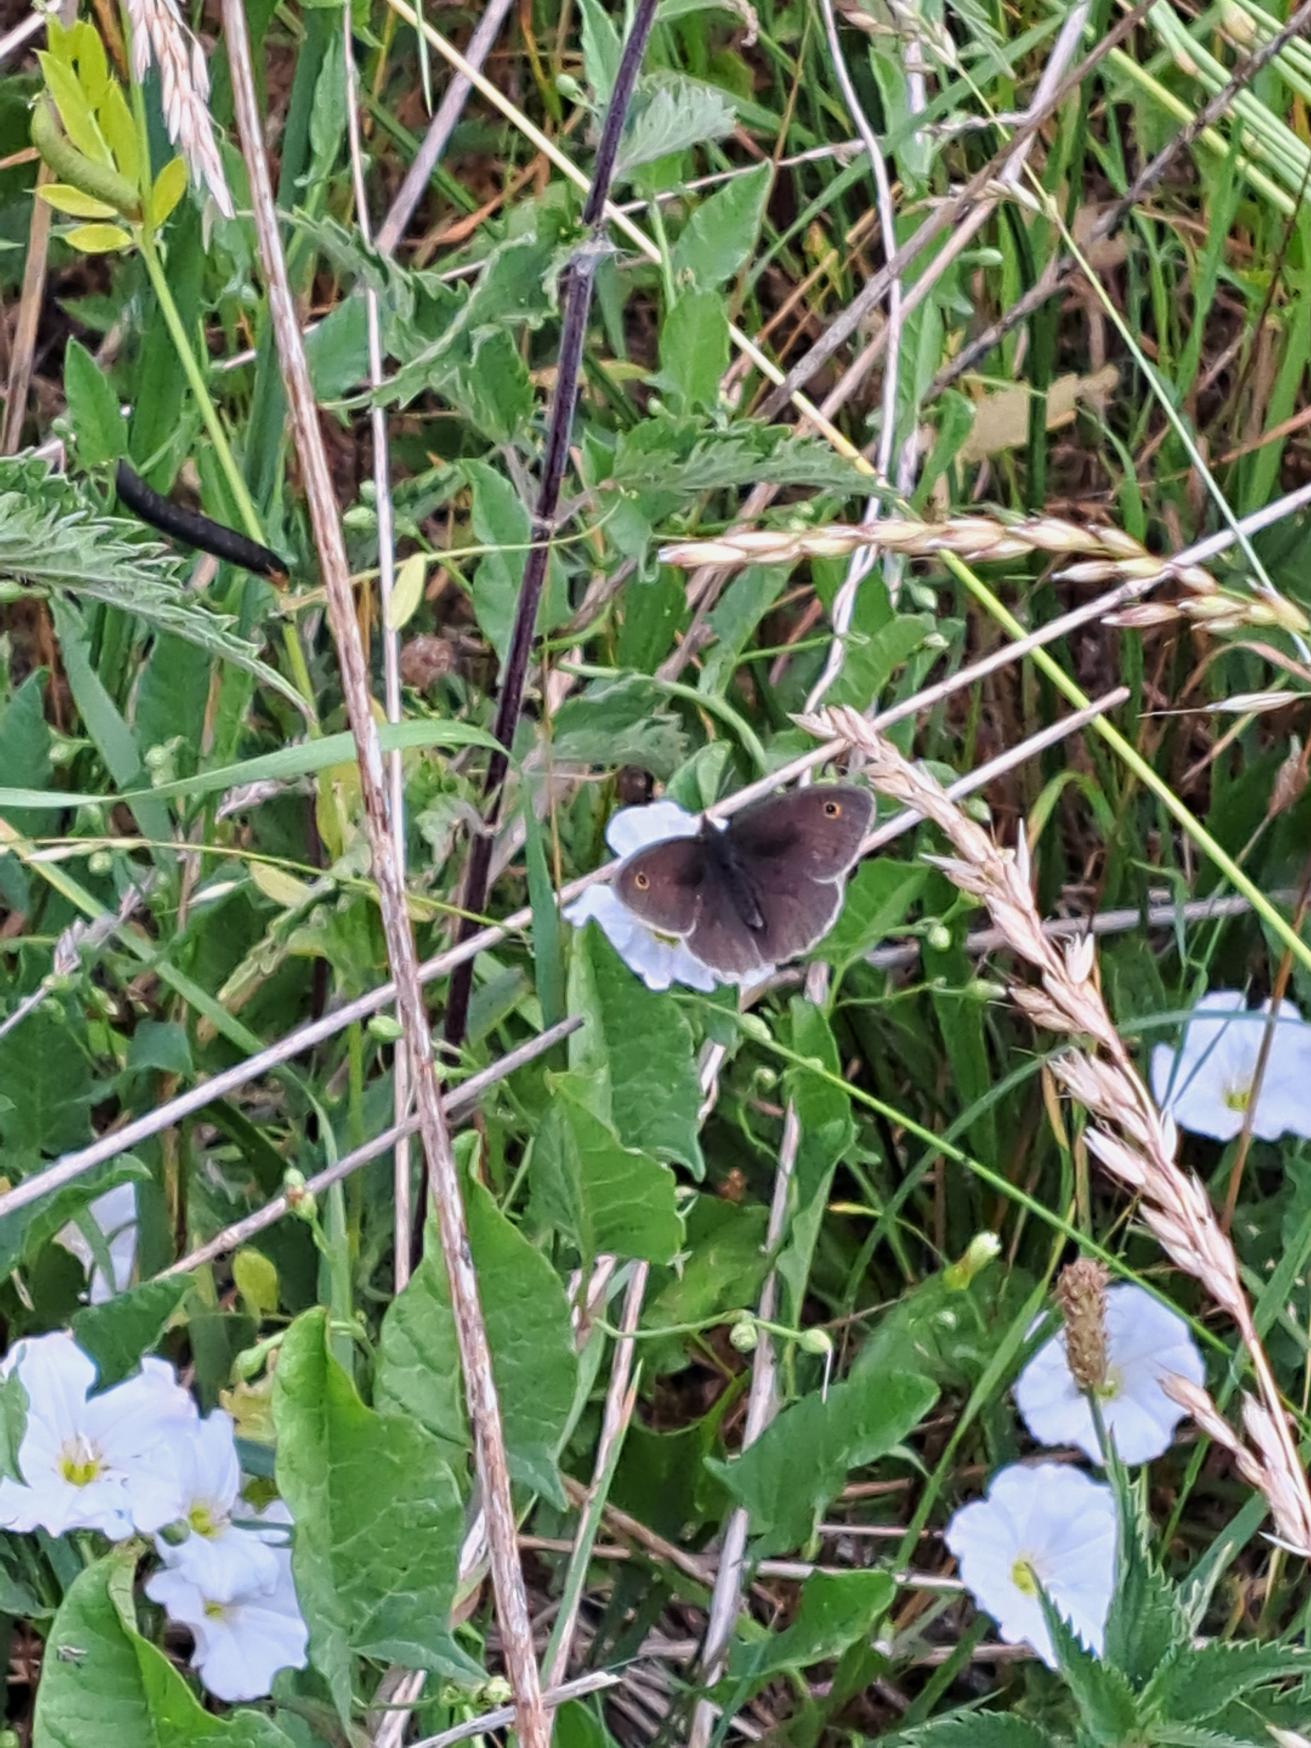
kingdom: Animalia
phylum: Arthropoda
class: Insecta
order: Lepidoptera
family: Nymphalidae
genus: Maniola
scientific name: Maniola jurtina
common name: Græsrandøje
